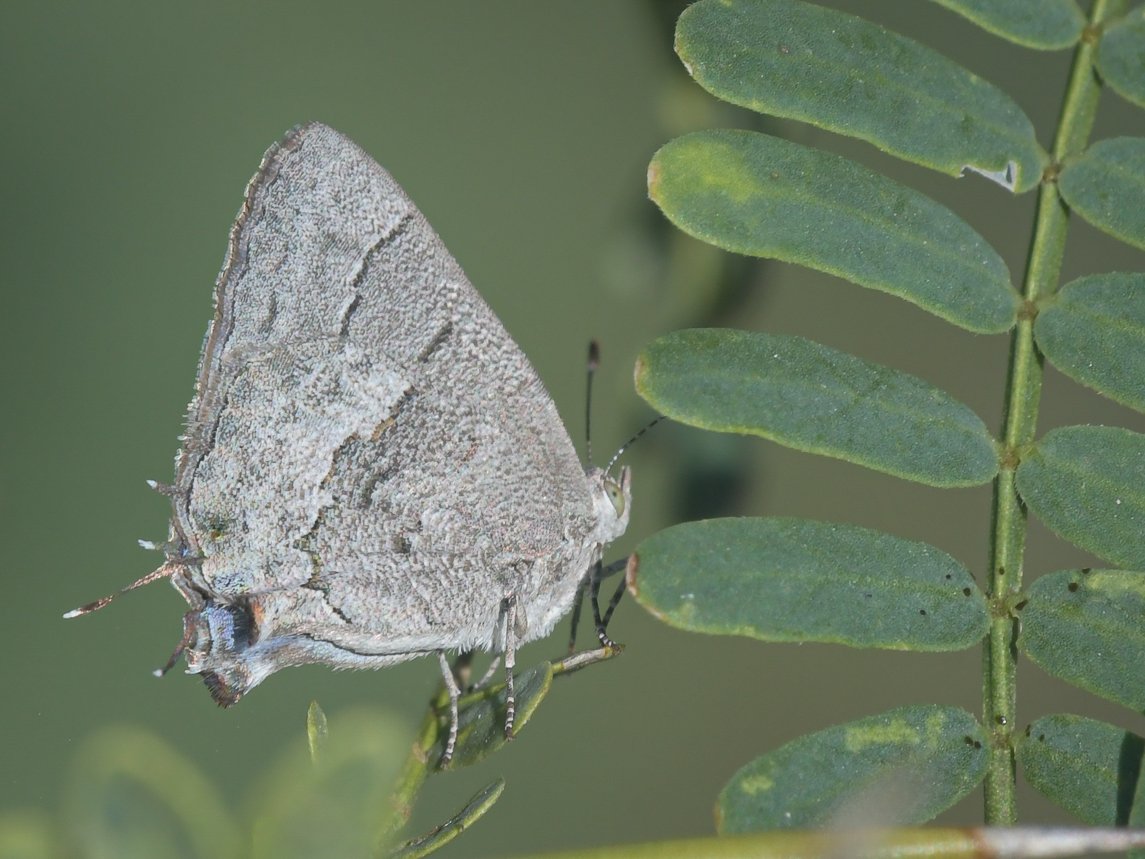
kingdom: Animalia
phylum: Arthropoda
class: Insecta
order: Lepidoptera
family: Lycaenidae
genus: Ministrymon
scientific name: Ministrymon leda
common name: Leda Ministreak
